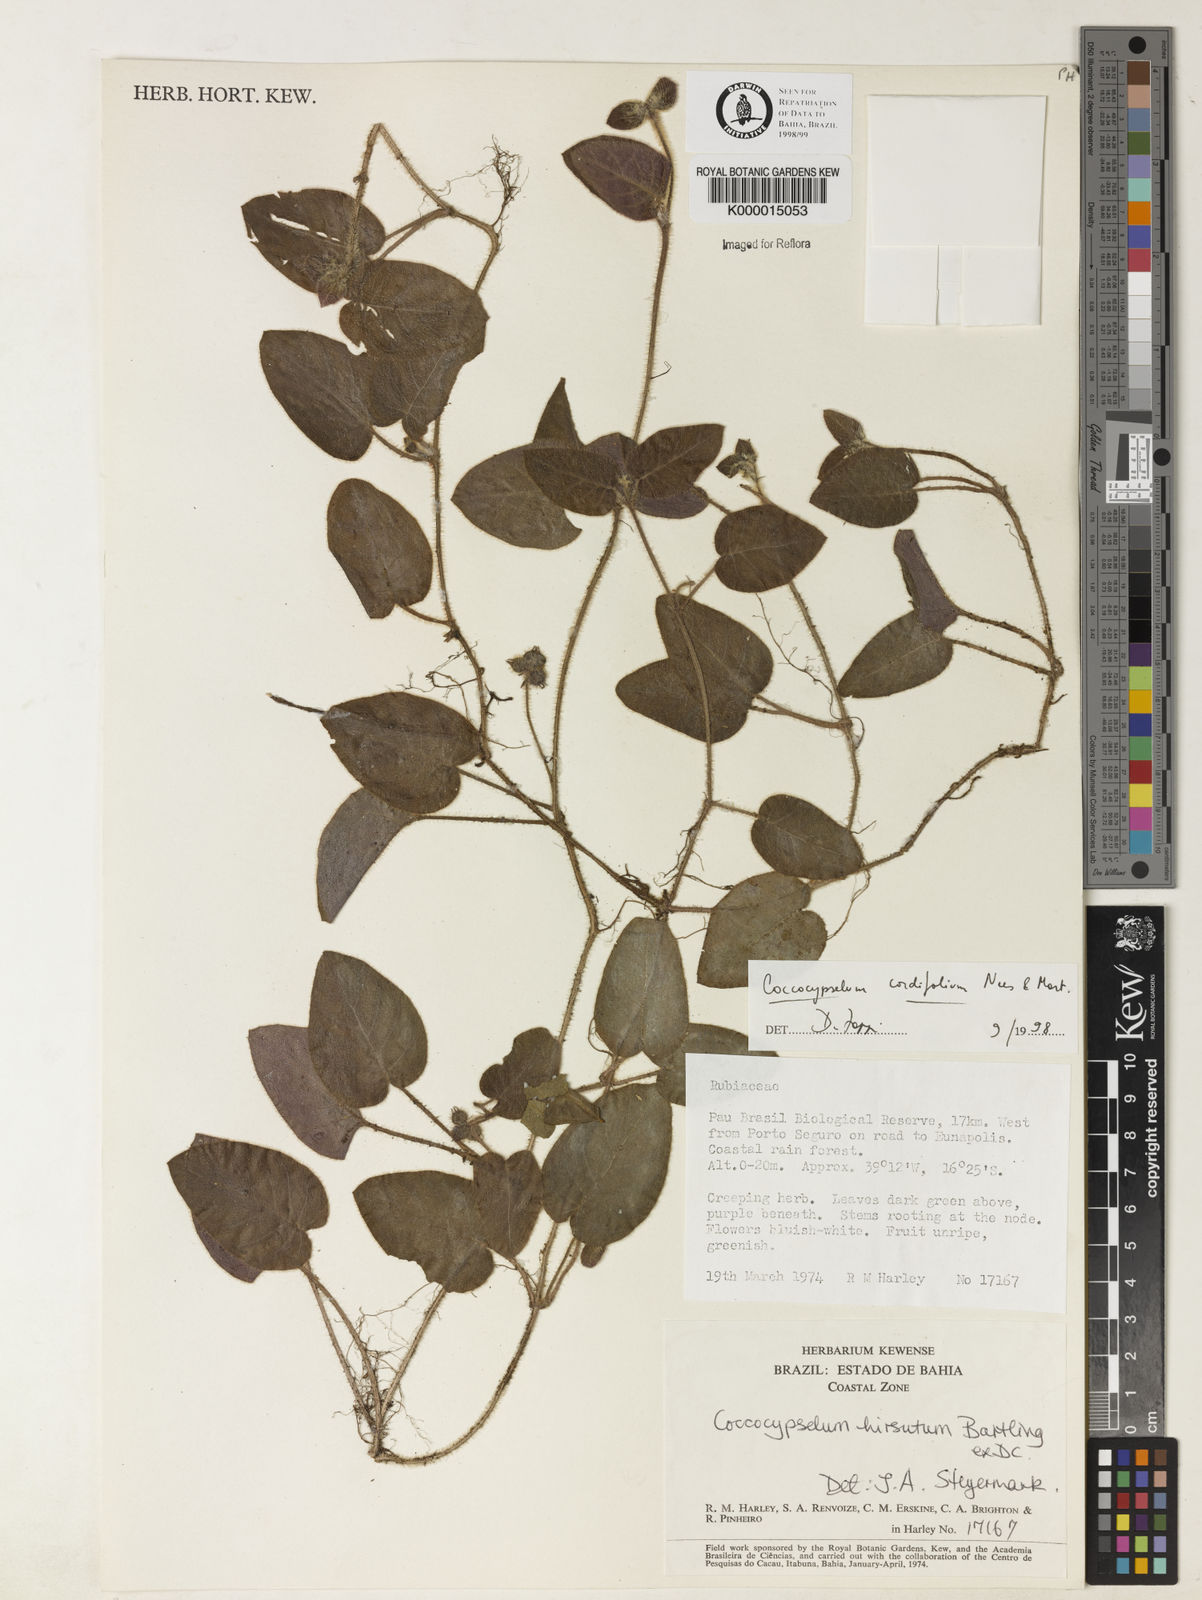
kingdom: Plantae
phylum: Tracheophyta
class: Magnoliopsida
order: Gentianales
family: Rubiaceae
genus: Coccocypselum
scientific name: Coccocypselum cordifolium
